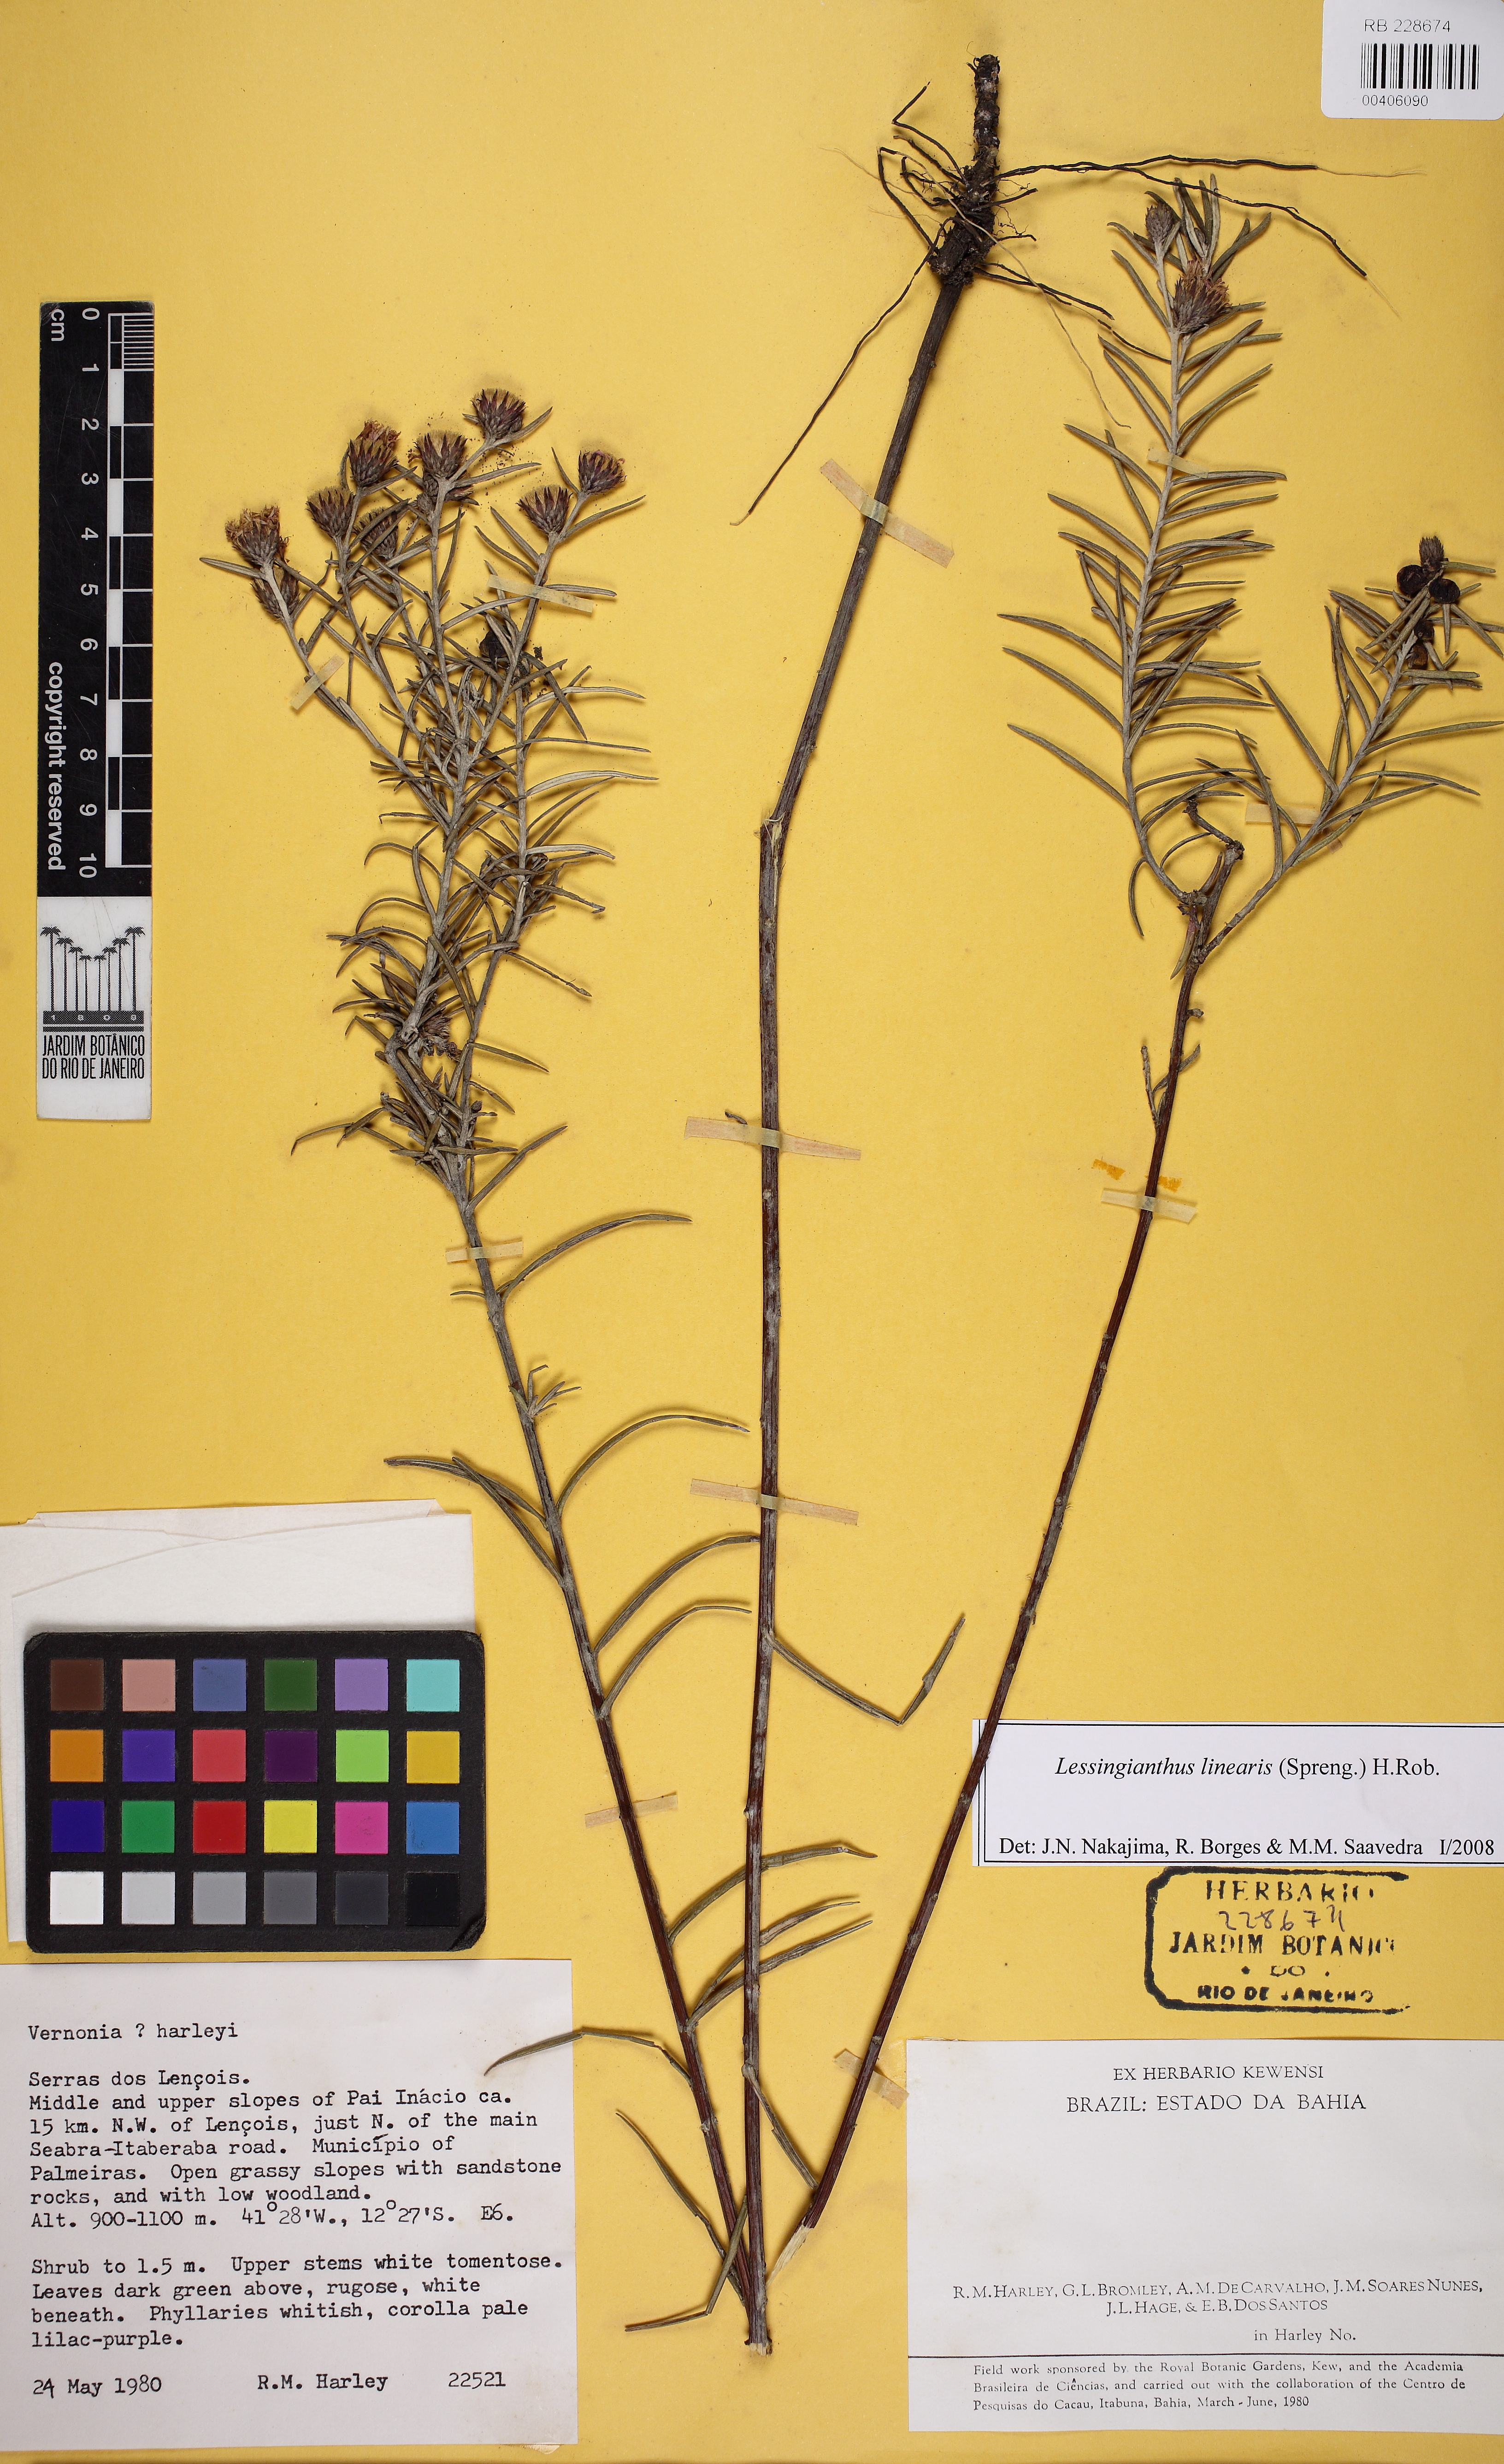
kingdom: Plantae
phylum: Tracheophyta
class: Magnoliopsida
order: Asterales
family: Asteraceae
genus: Lessingianthus
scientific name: Lessingianthus linearis
